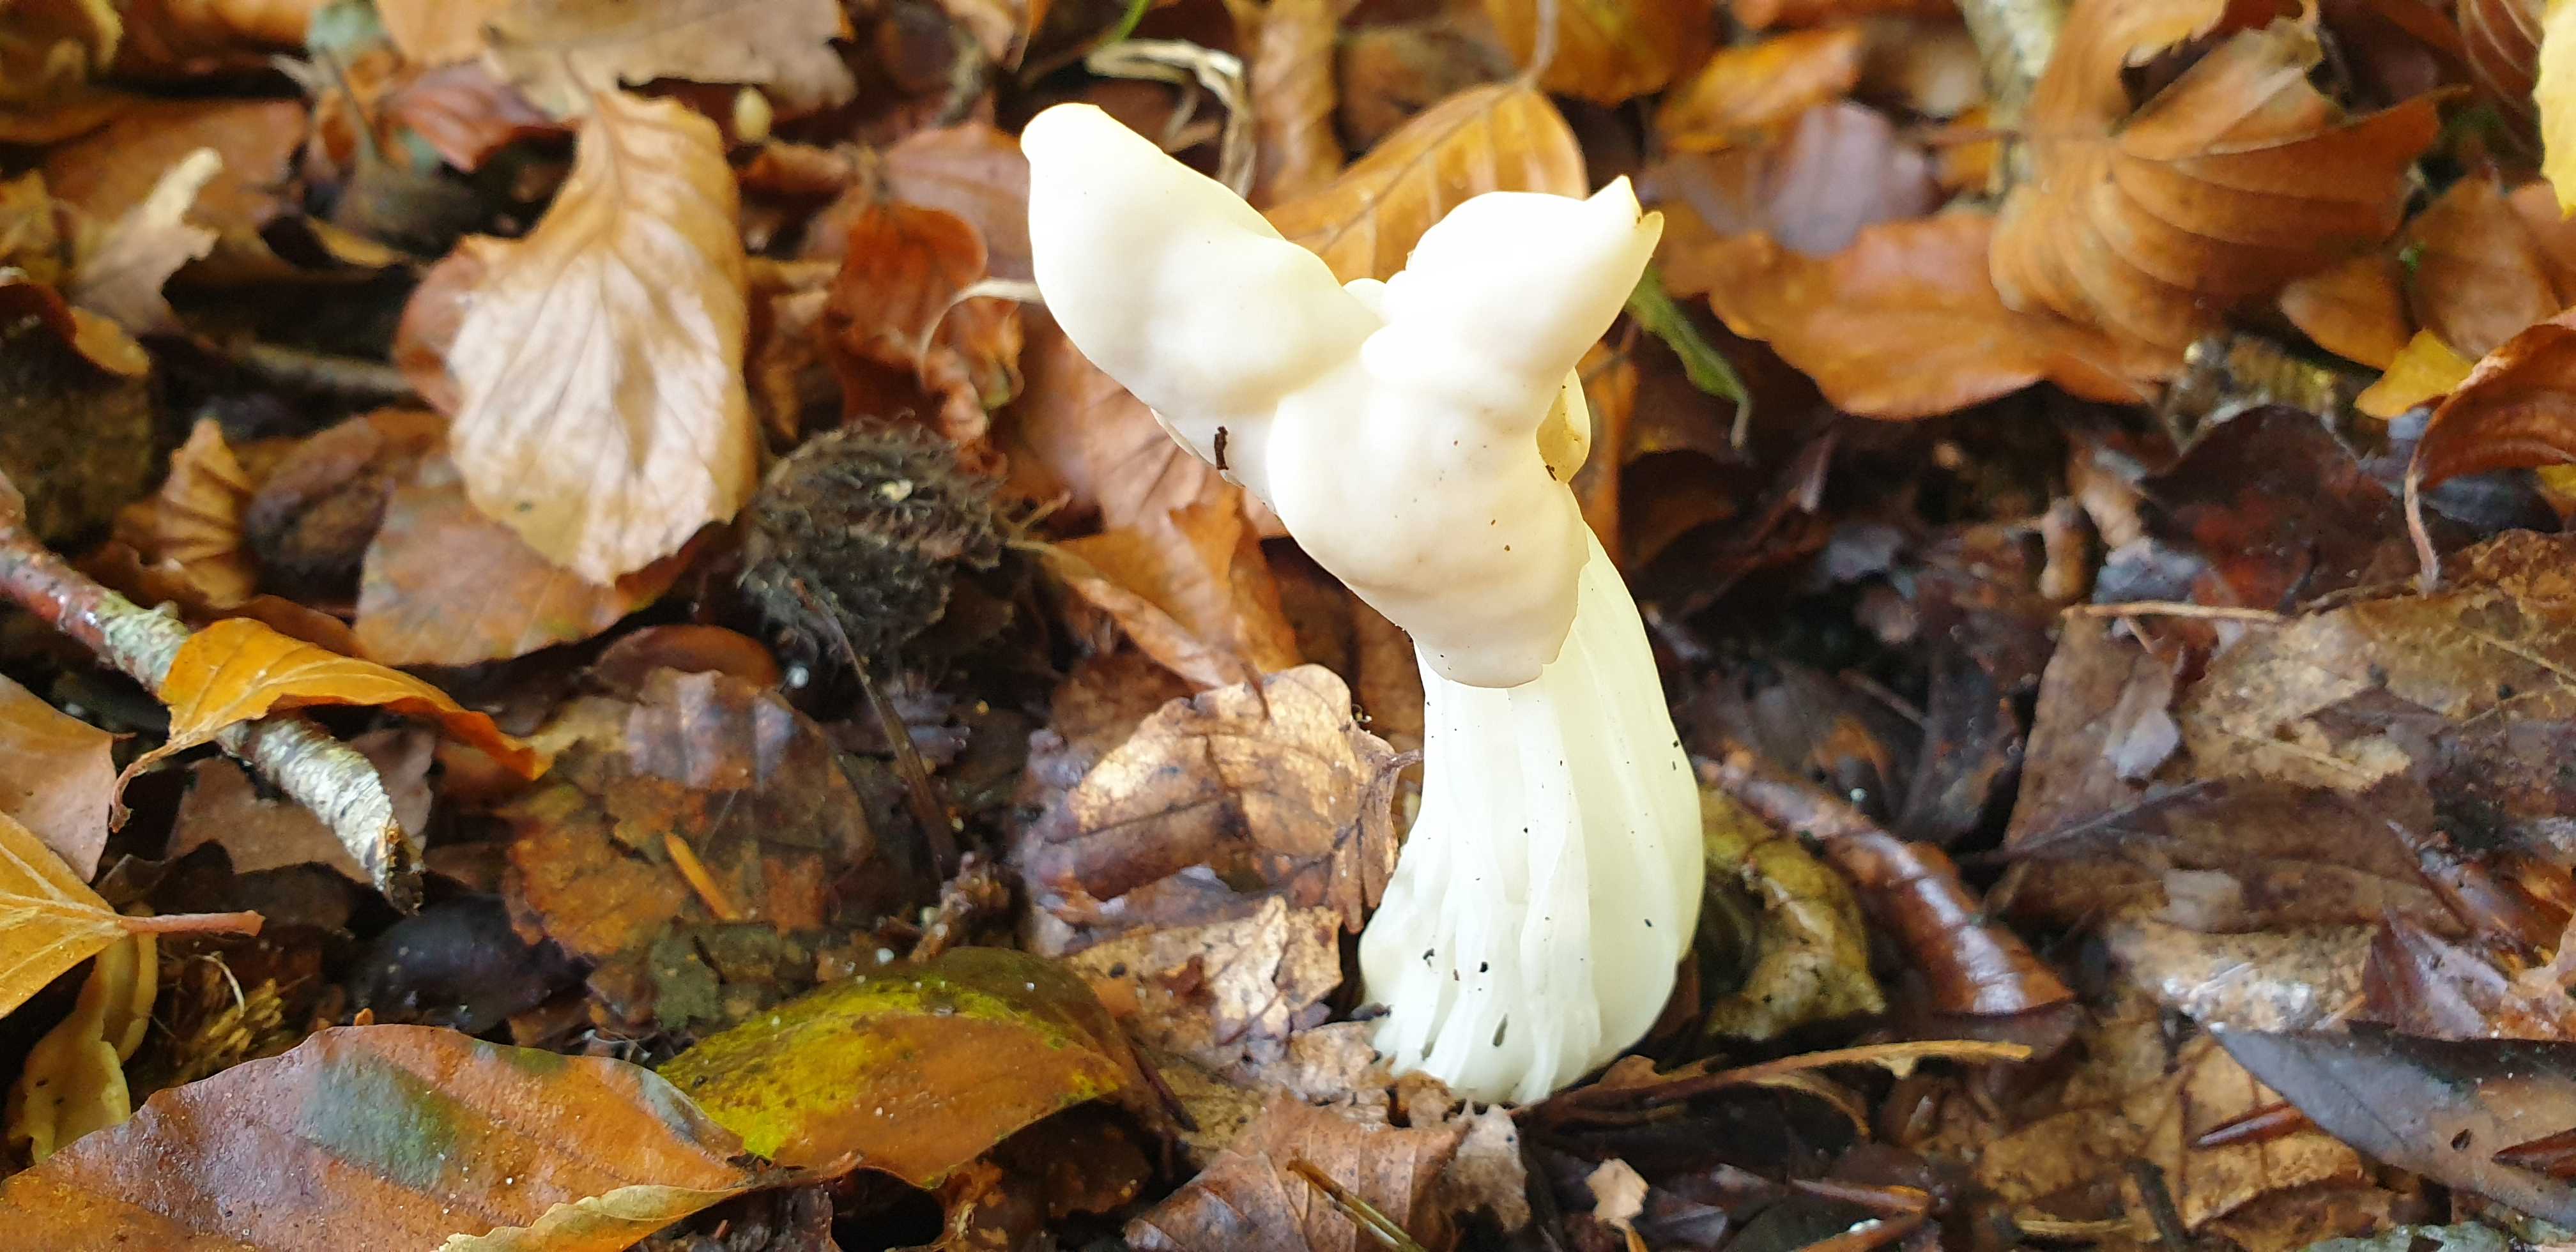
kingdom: Fungi
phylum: Ascomycota
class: Pezizomycetes
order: Pezizales
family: Helvellaceae
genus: Helvella
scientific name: Helvella crispa
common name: kruset foldhat
